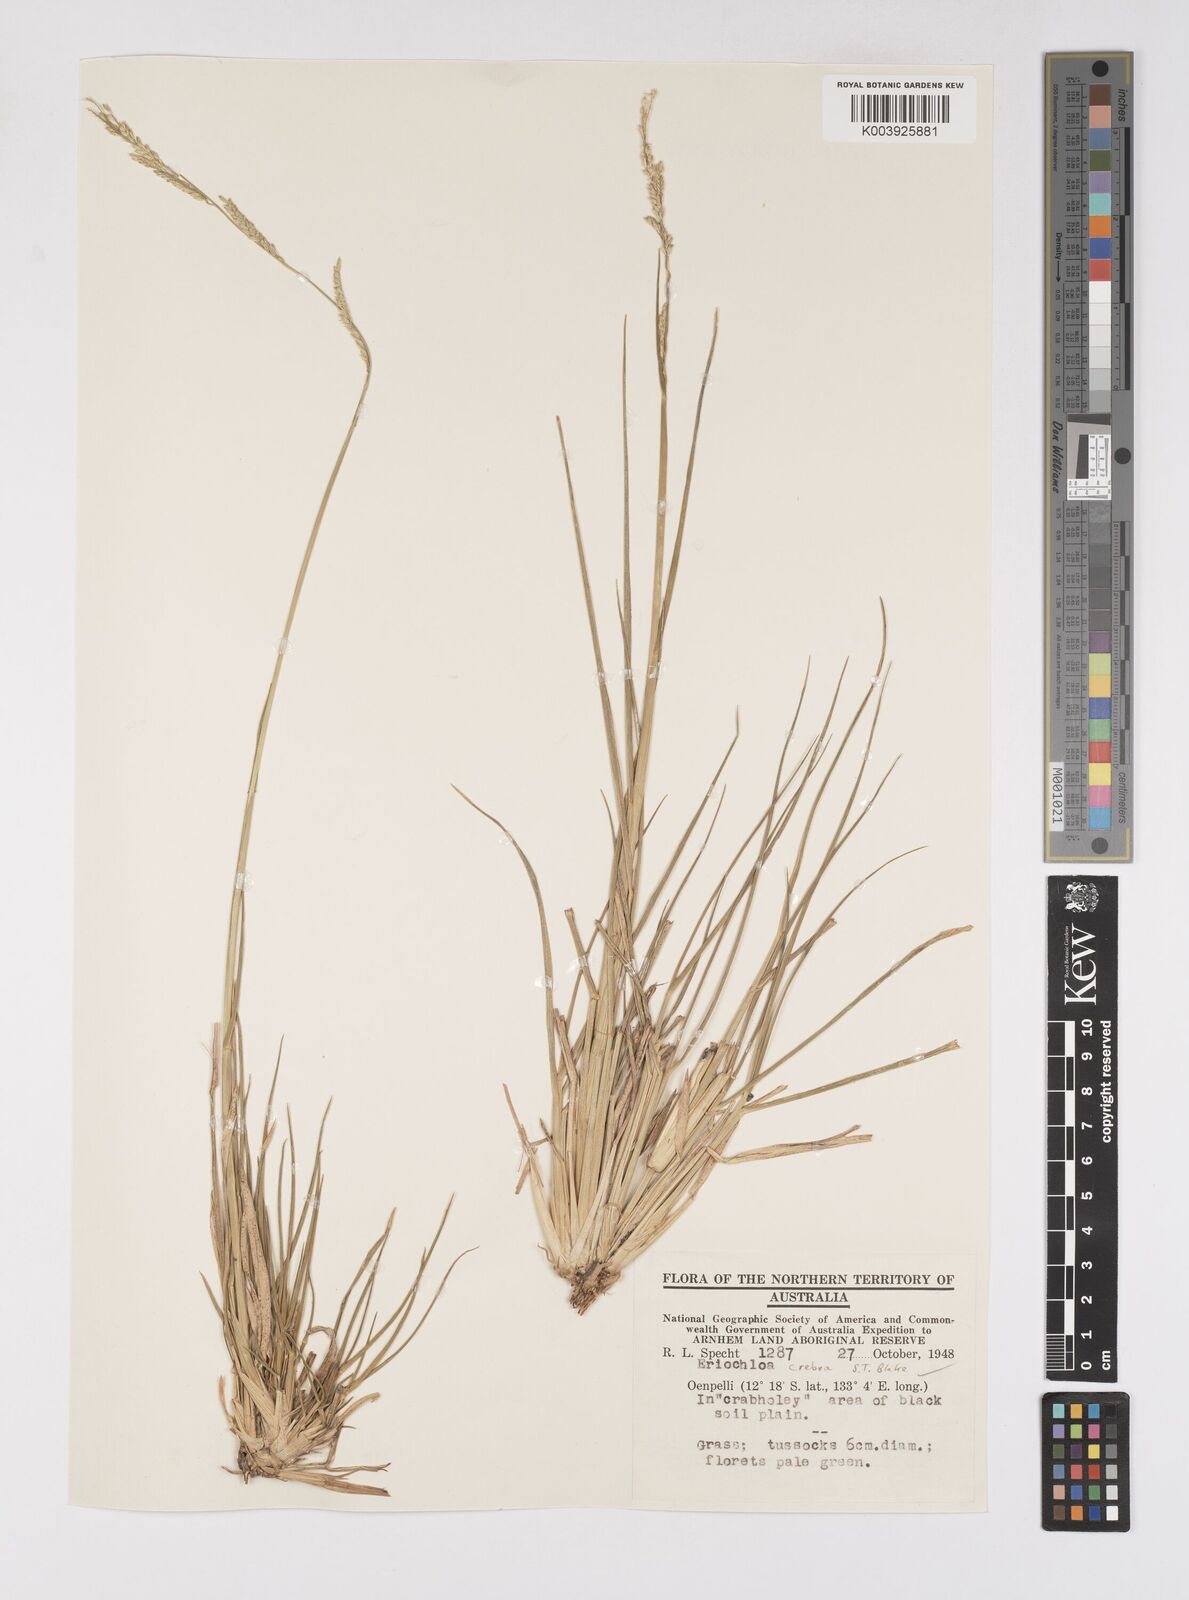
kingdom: Plantae
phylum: Tracheophyta
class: Liliopsida
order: Poales
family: Poaceae
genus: Eriochloa
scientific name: Eriochloa crebra
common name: Cup grass
